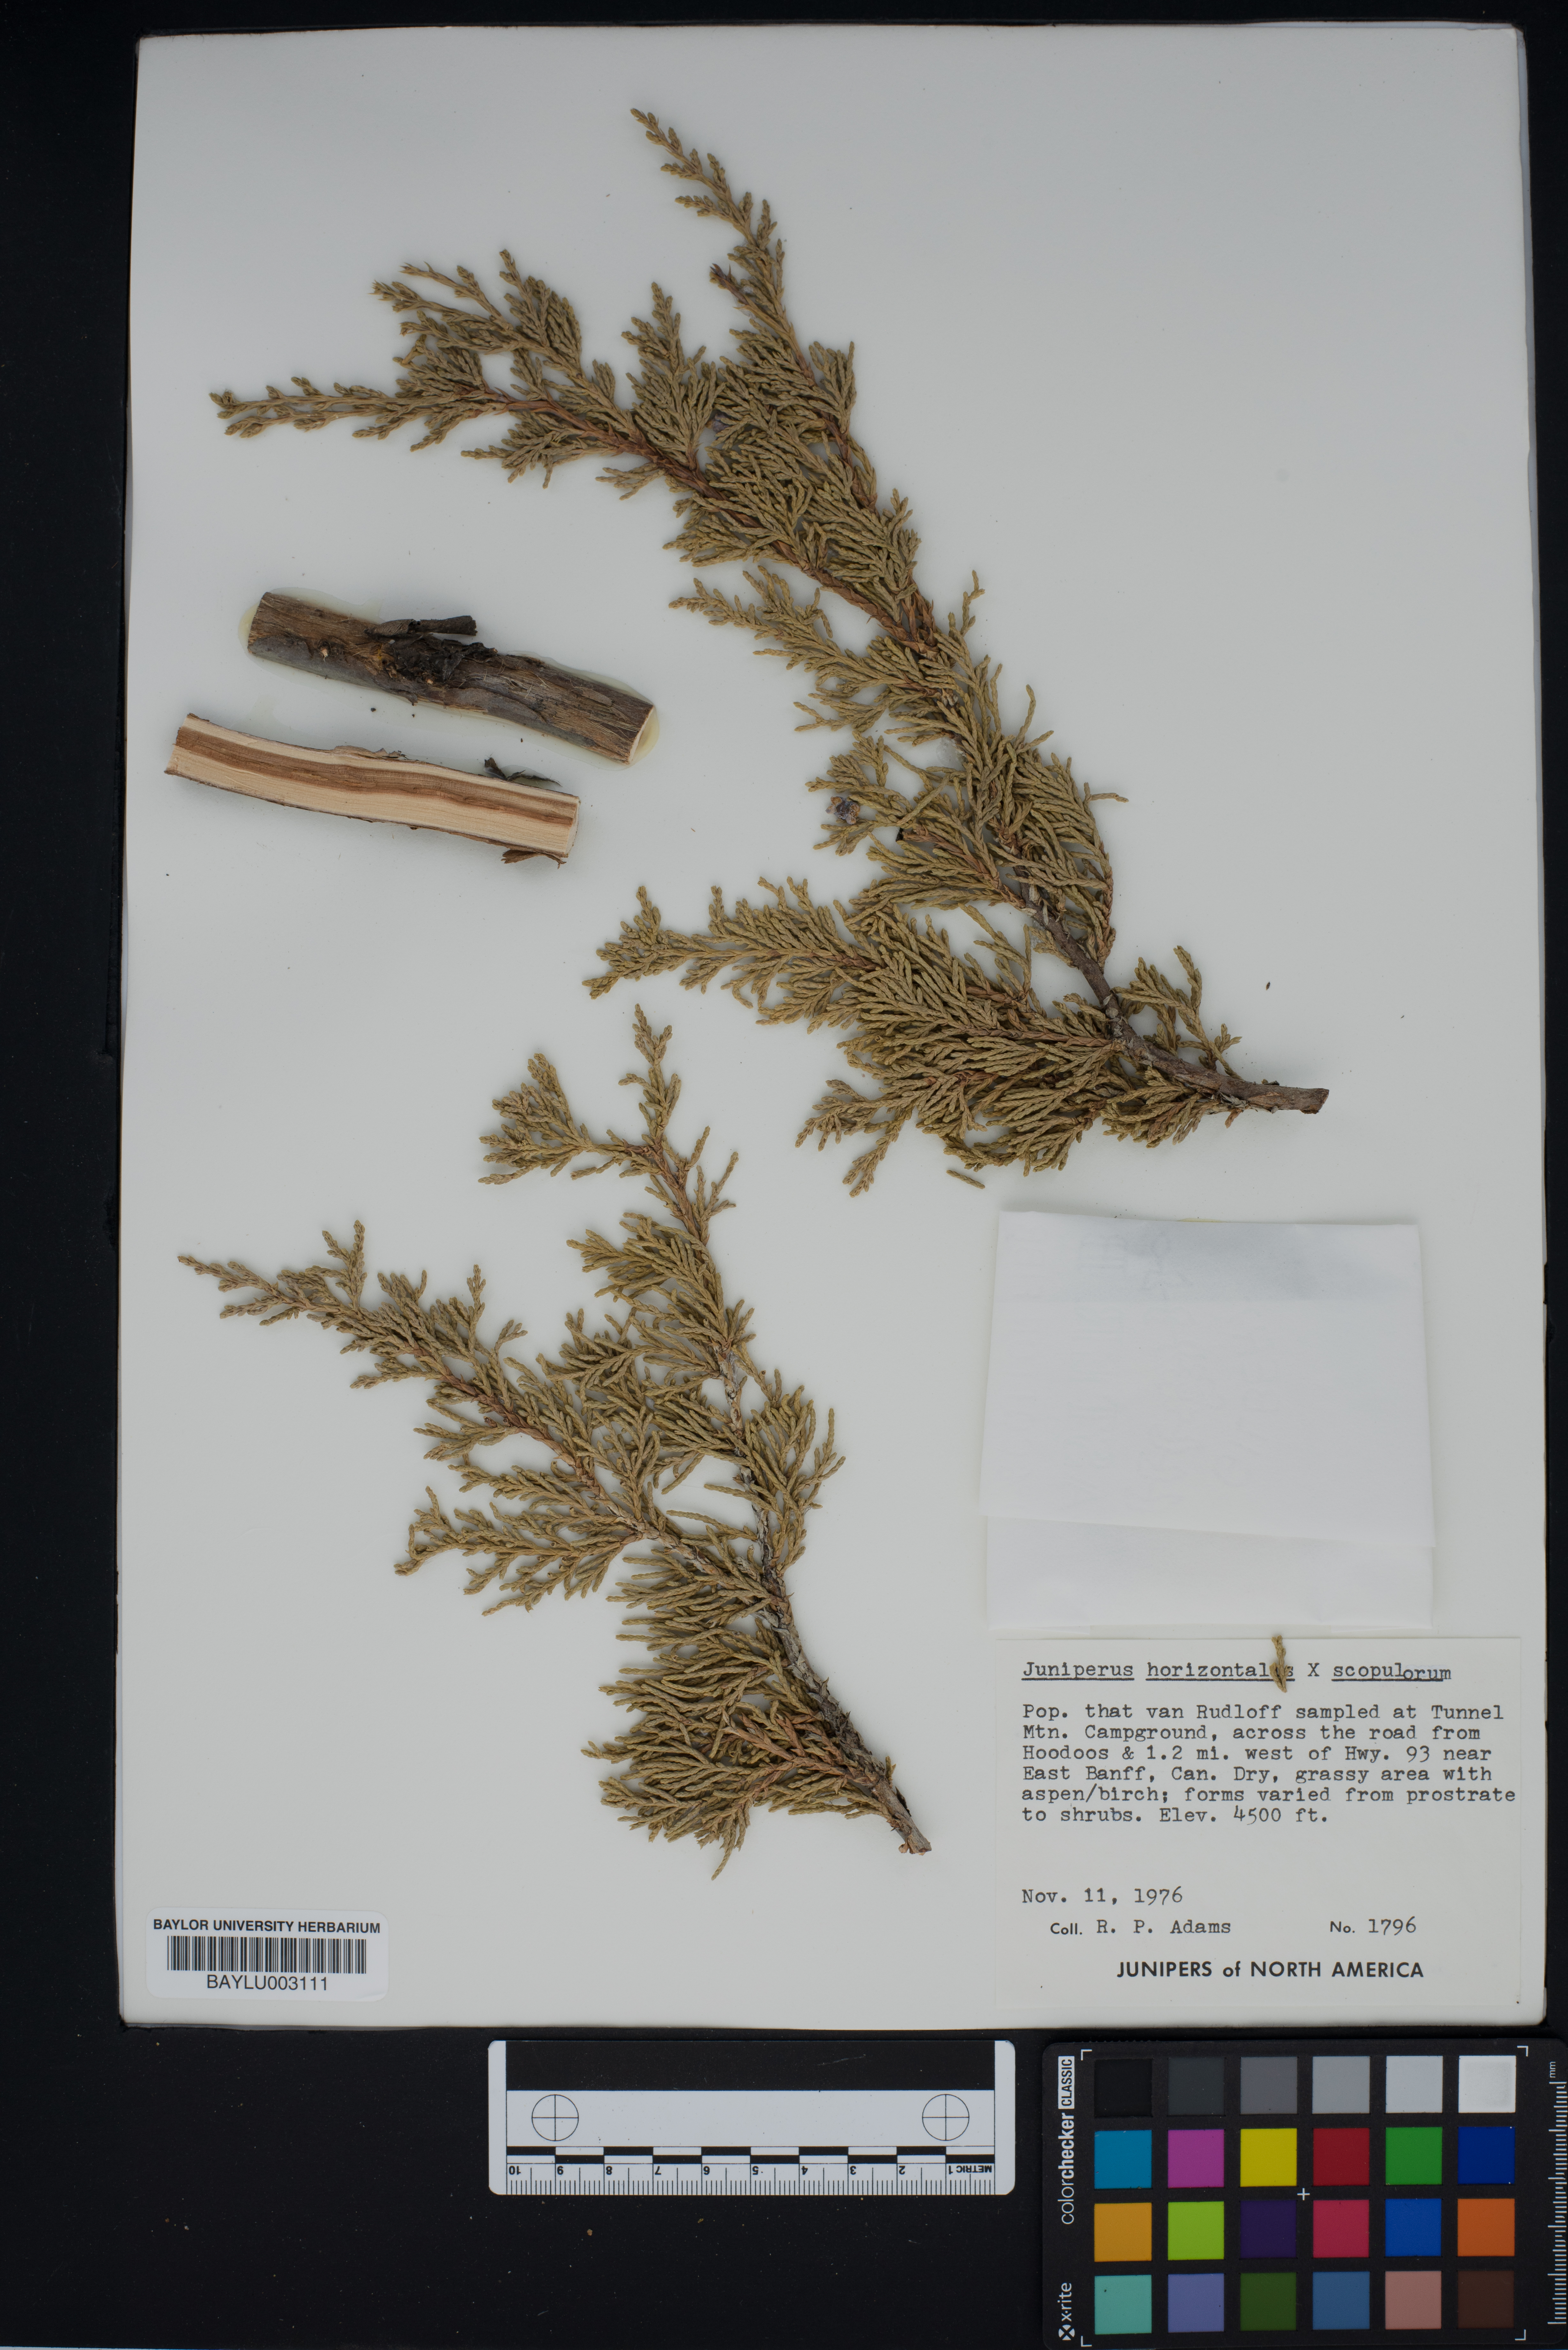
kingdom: Plantae
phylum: Tracheophyta
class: Pinopsida
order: Pinales
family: Cupressaceae
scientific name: Cupressaceae
